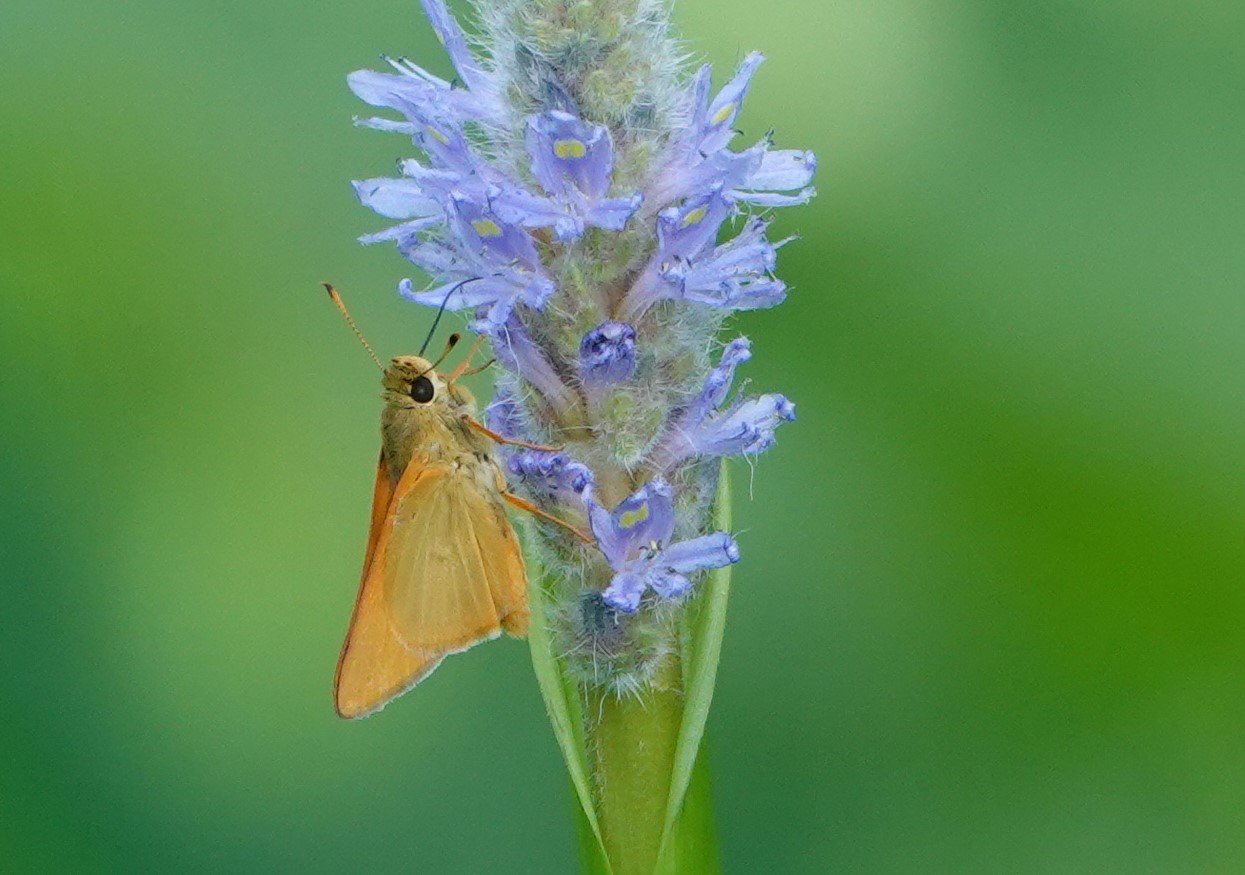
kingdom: Animalia
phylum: Arthropoda
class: Insecta
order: Lepidoptera
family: Hesperiidae
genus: Problema
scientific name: Problema bulenta
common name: Rare Skipper
